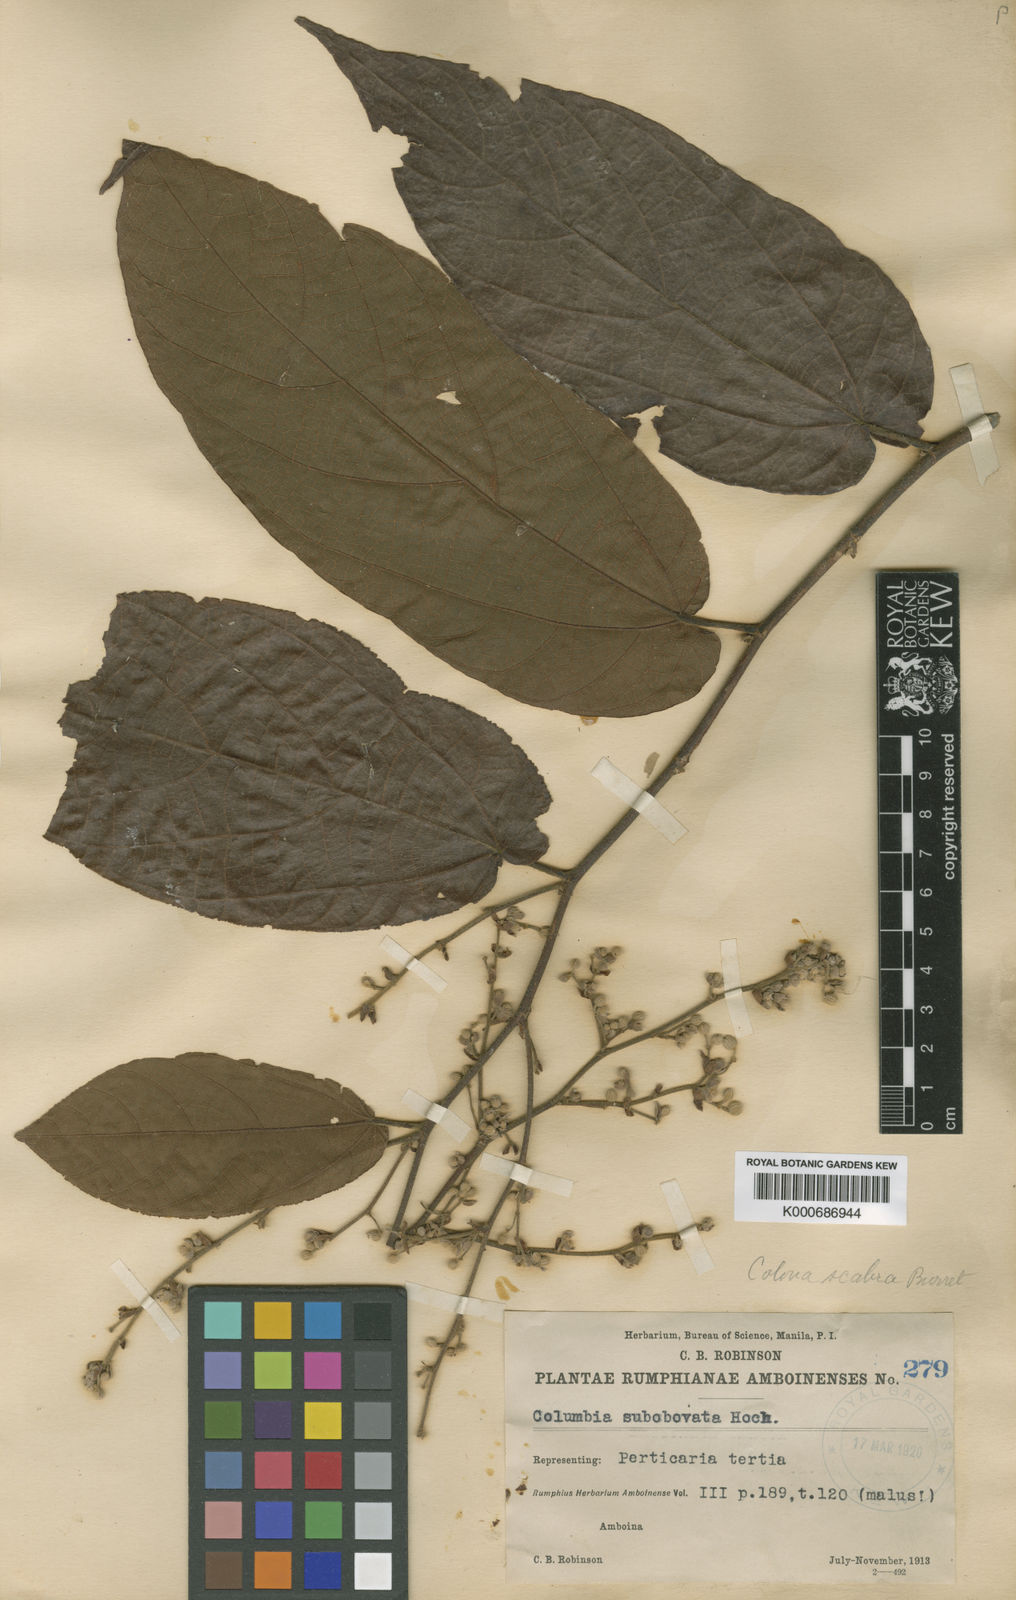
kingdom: Plantae
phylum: Tracheophyta
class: Magnoliopsida
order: Malvales
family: Malvaceae
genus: Colona
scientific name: Colona scabra
